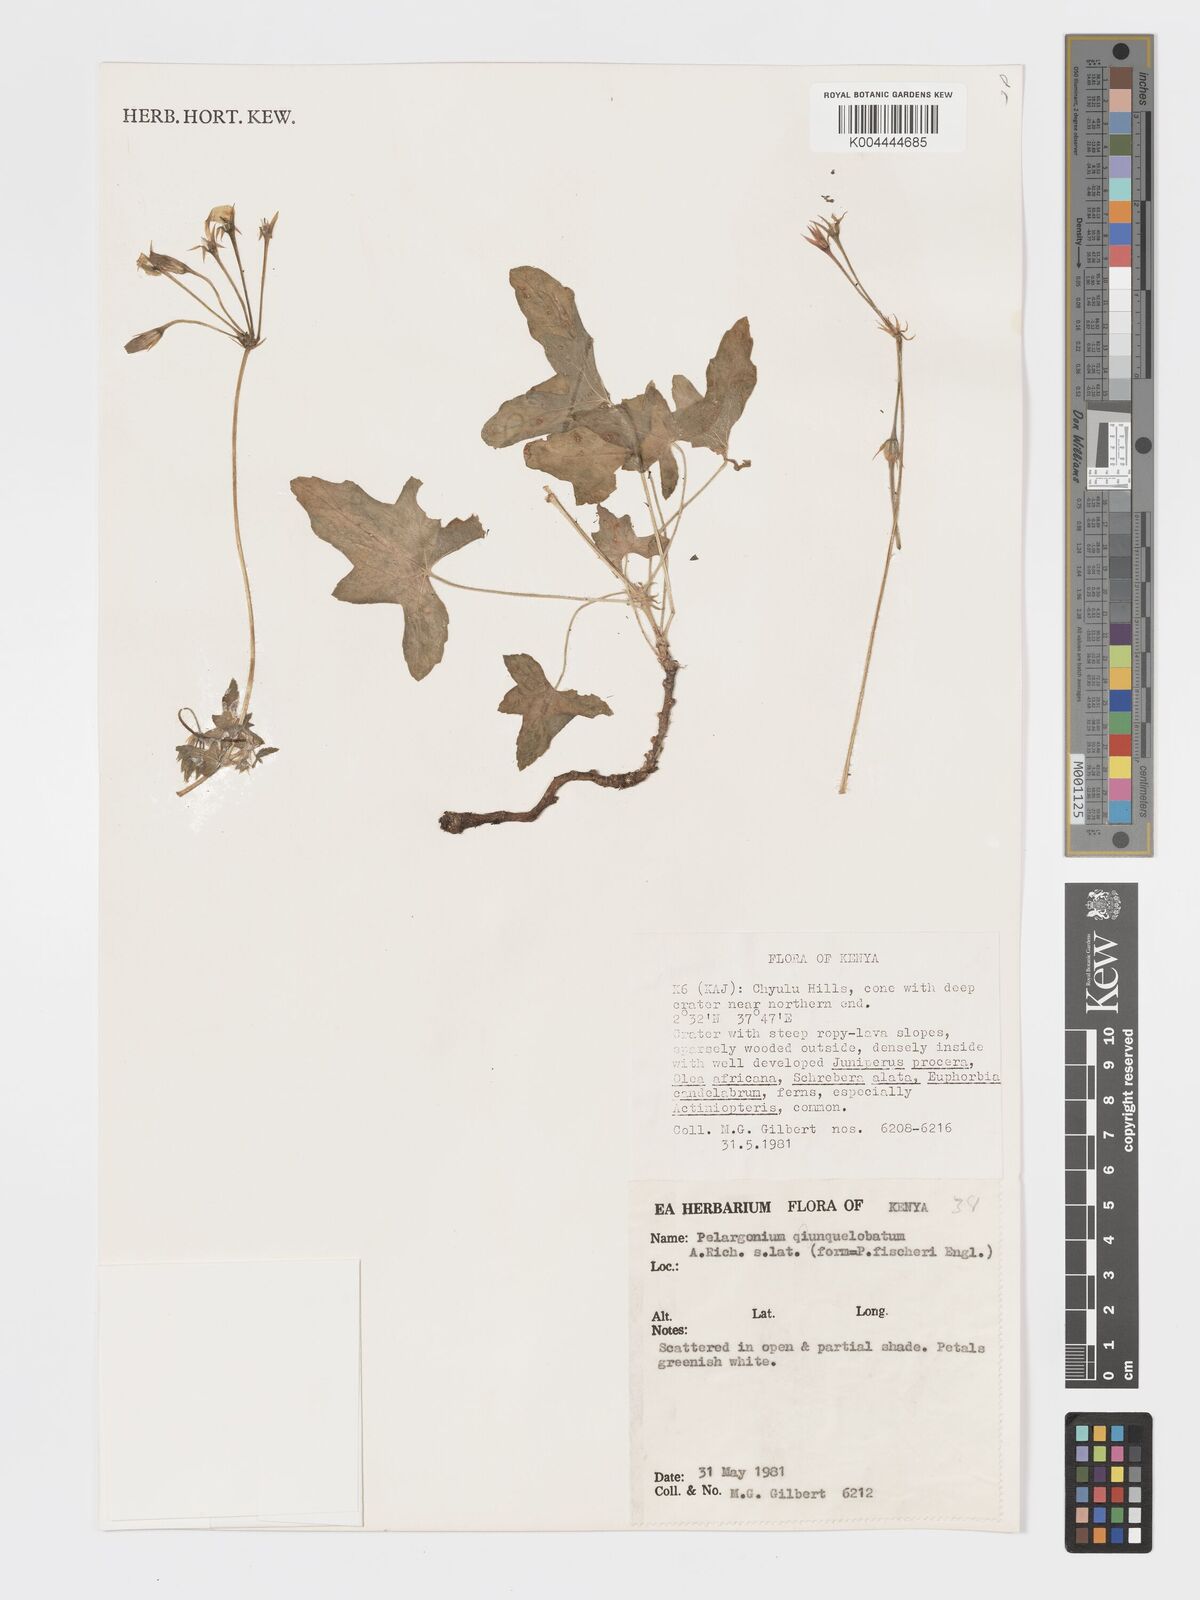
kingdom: Plantae
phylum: Tracheophyta
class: Magnoliopsida
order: Geraniales
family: Geraniaceae
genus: Pelargonium
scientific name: Pelargonium quinquelobatum
